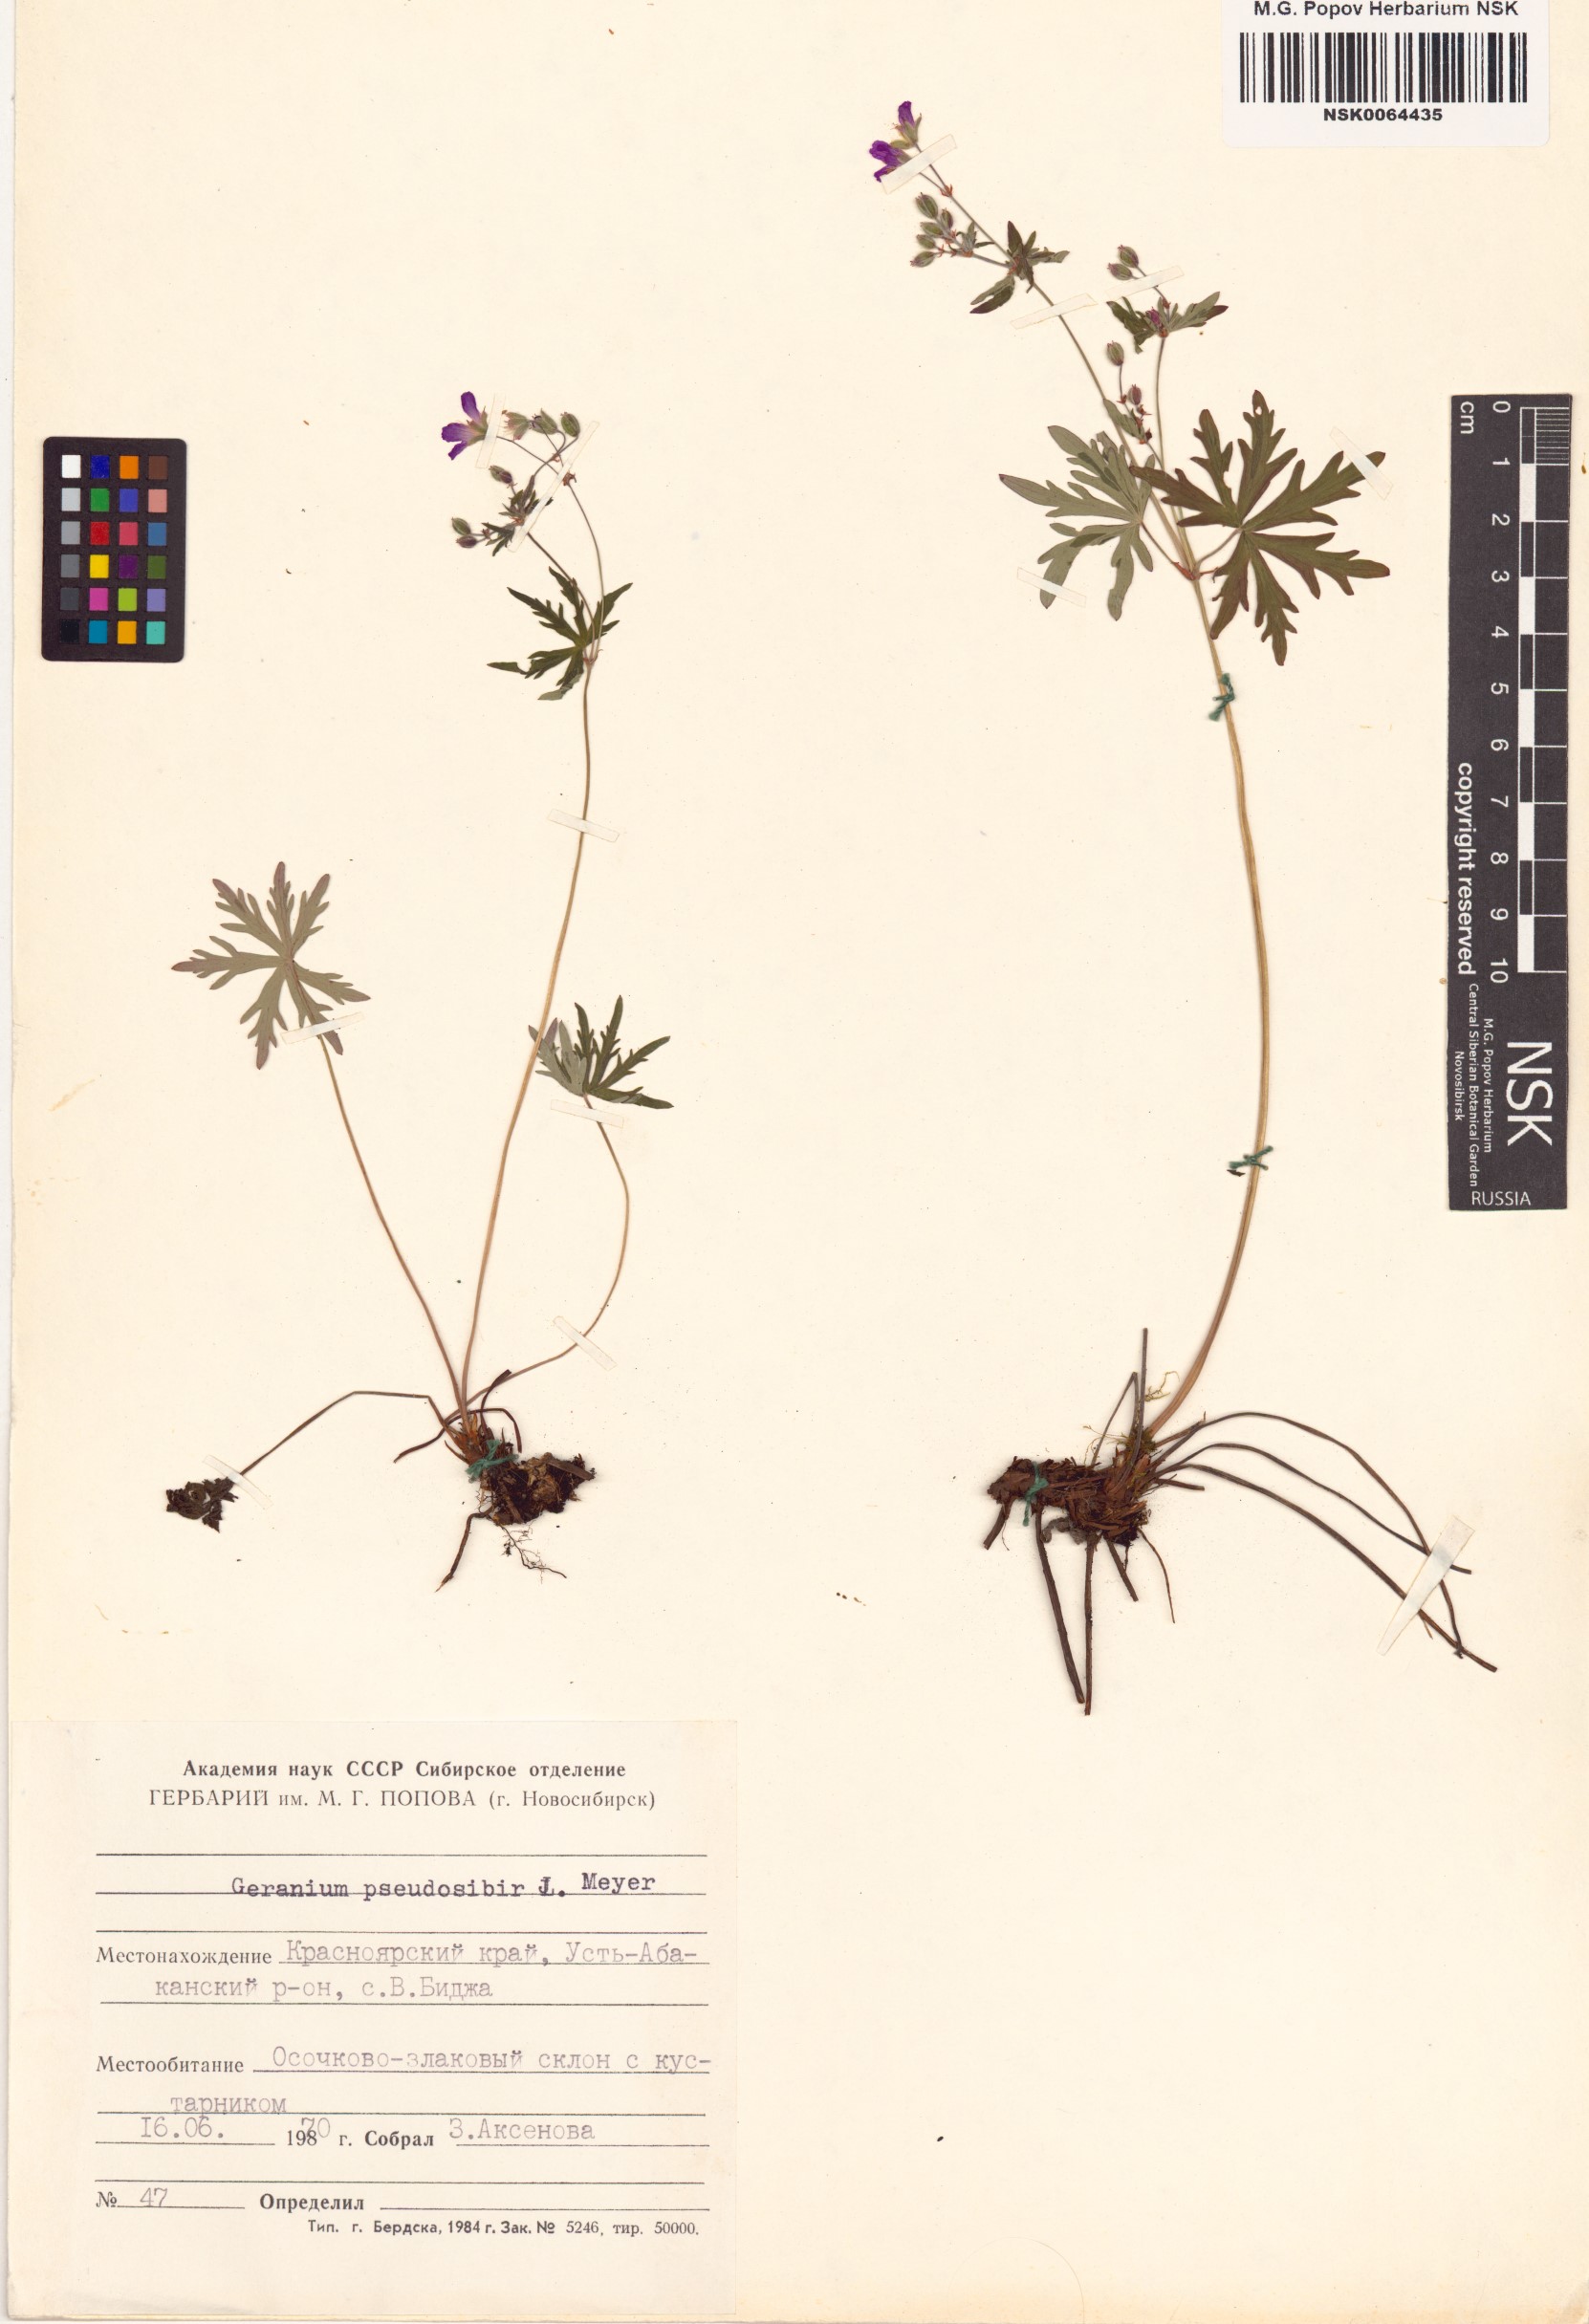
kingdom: Plantae
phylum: Tracheophyta
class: Magnoliopsida
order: Geraniales
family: Geraniaceae
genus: Geranium
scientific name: Geranium pseudosibiricum
